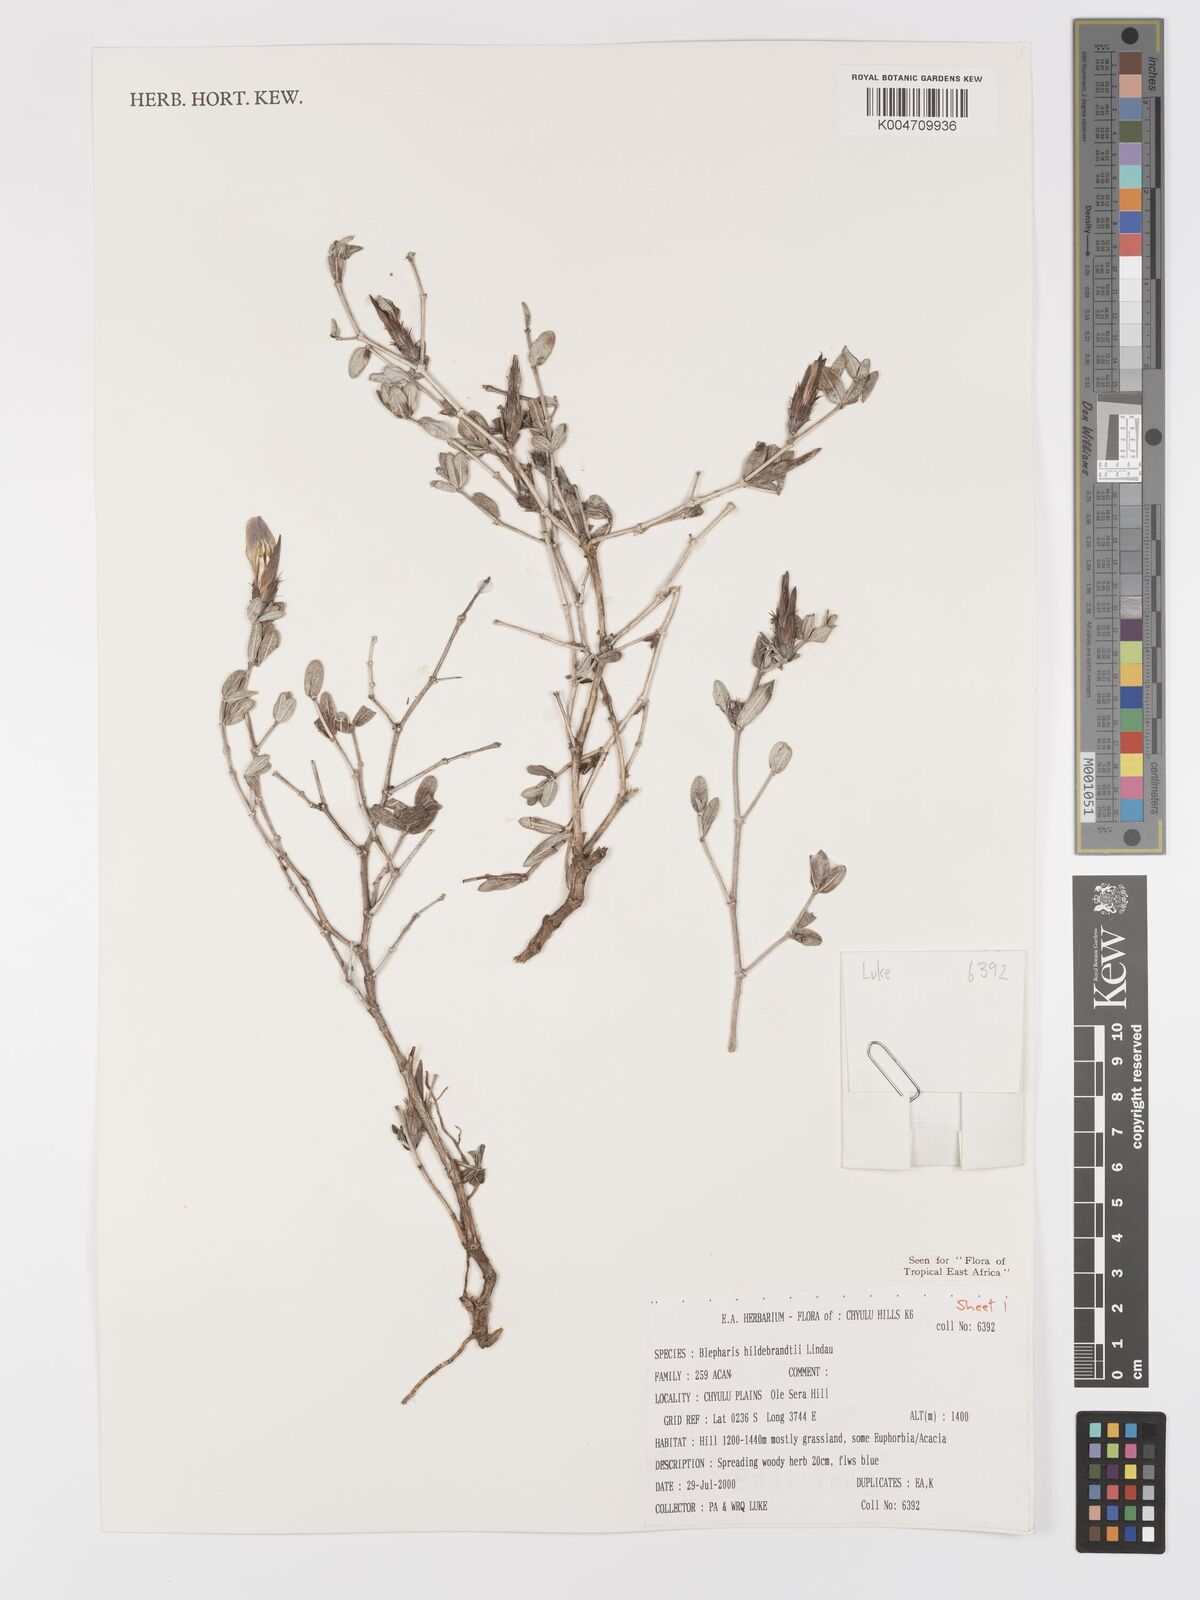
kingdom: Plantae
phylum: Tracheophyta
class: Magnoliopsida
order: Lamiales
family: Acanthaceae
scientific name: Acanthaceae
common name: Acanthaceae
